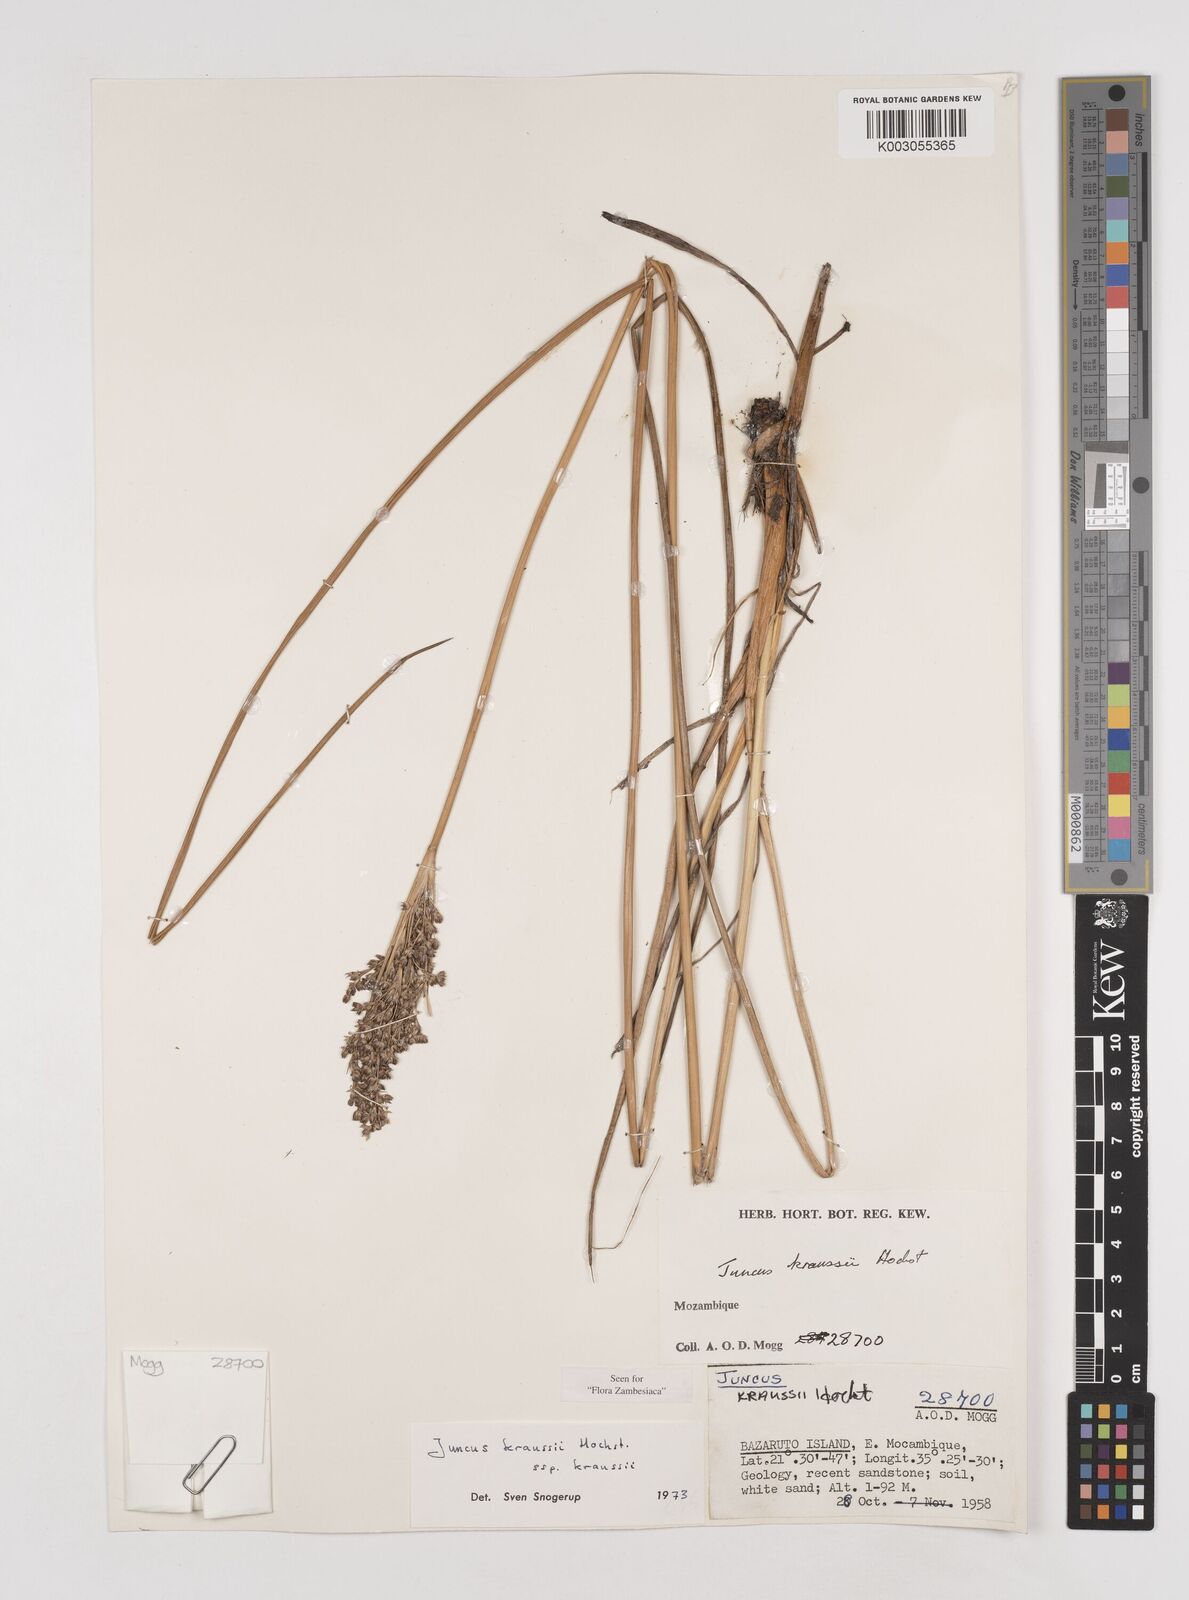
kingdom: Plantae
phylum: Tracheophyta
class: Liliopsida
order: Poales
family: Juncaceae
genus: Juncus
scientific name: Juncus kraussii
